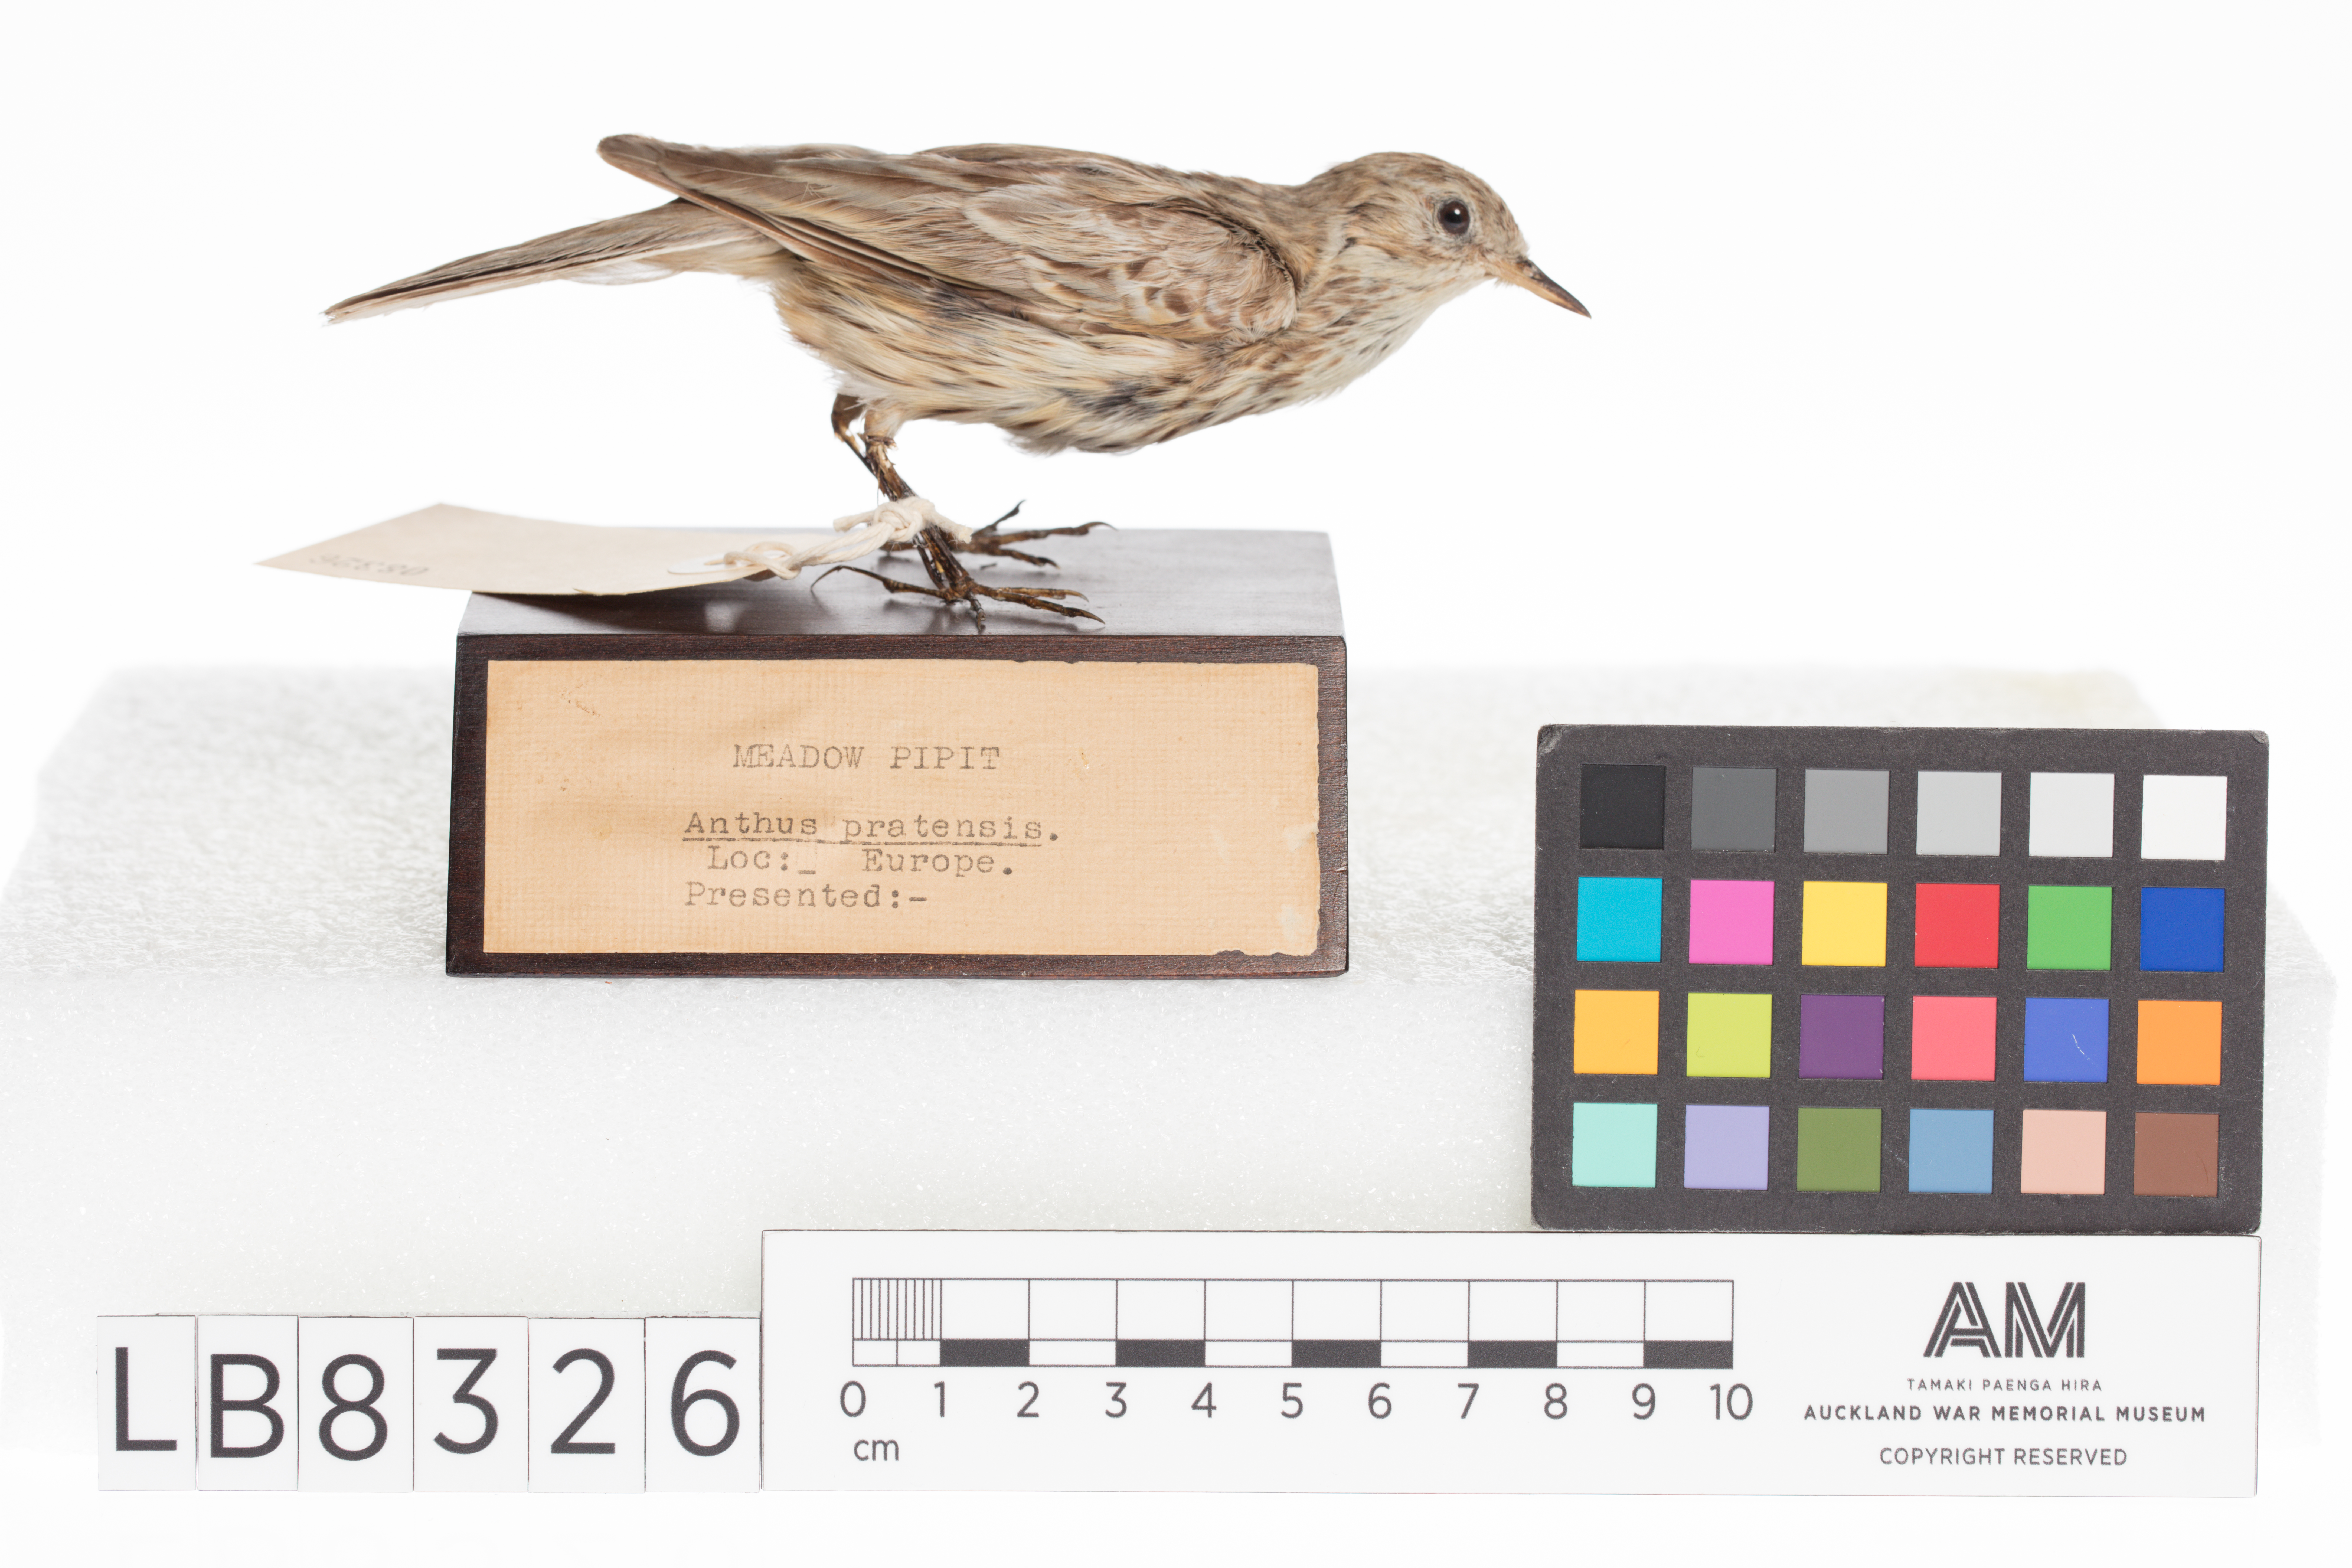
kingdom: Animalia
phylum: Chordata
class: Aves
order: Passeriformes
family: Motacillidae
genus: Anthus
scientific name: Anthus pratensis
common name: Meadow pipit
